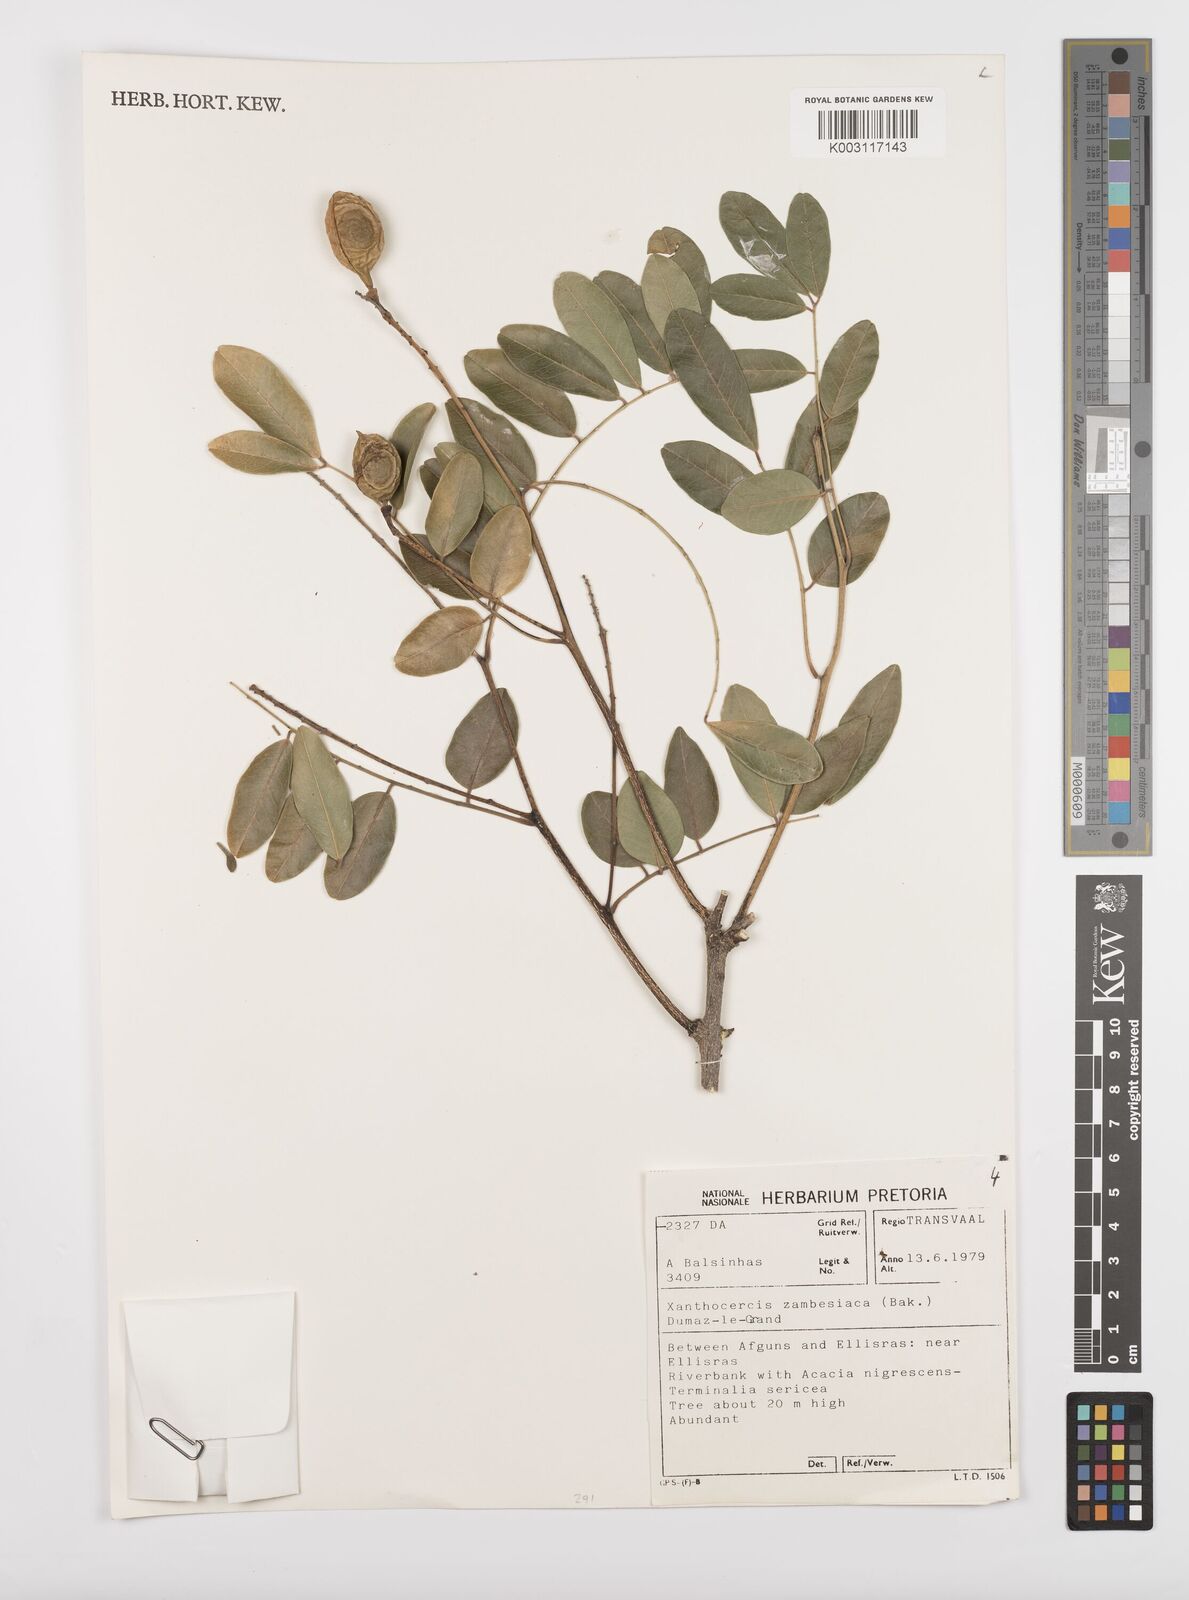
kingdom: Plantae
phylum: Tracheophyta
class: Magnoliopsida
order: Fabales
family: Fabaceae
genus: Xanthocercis
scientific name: Xanthocercis zambesiaca
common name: Nyala-tree
